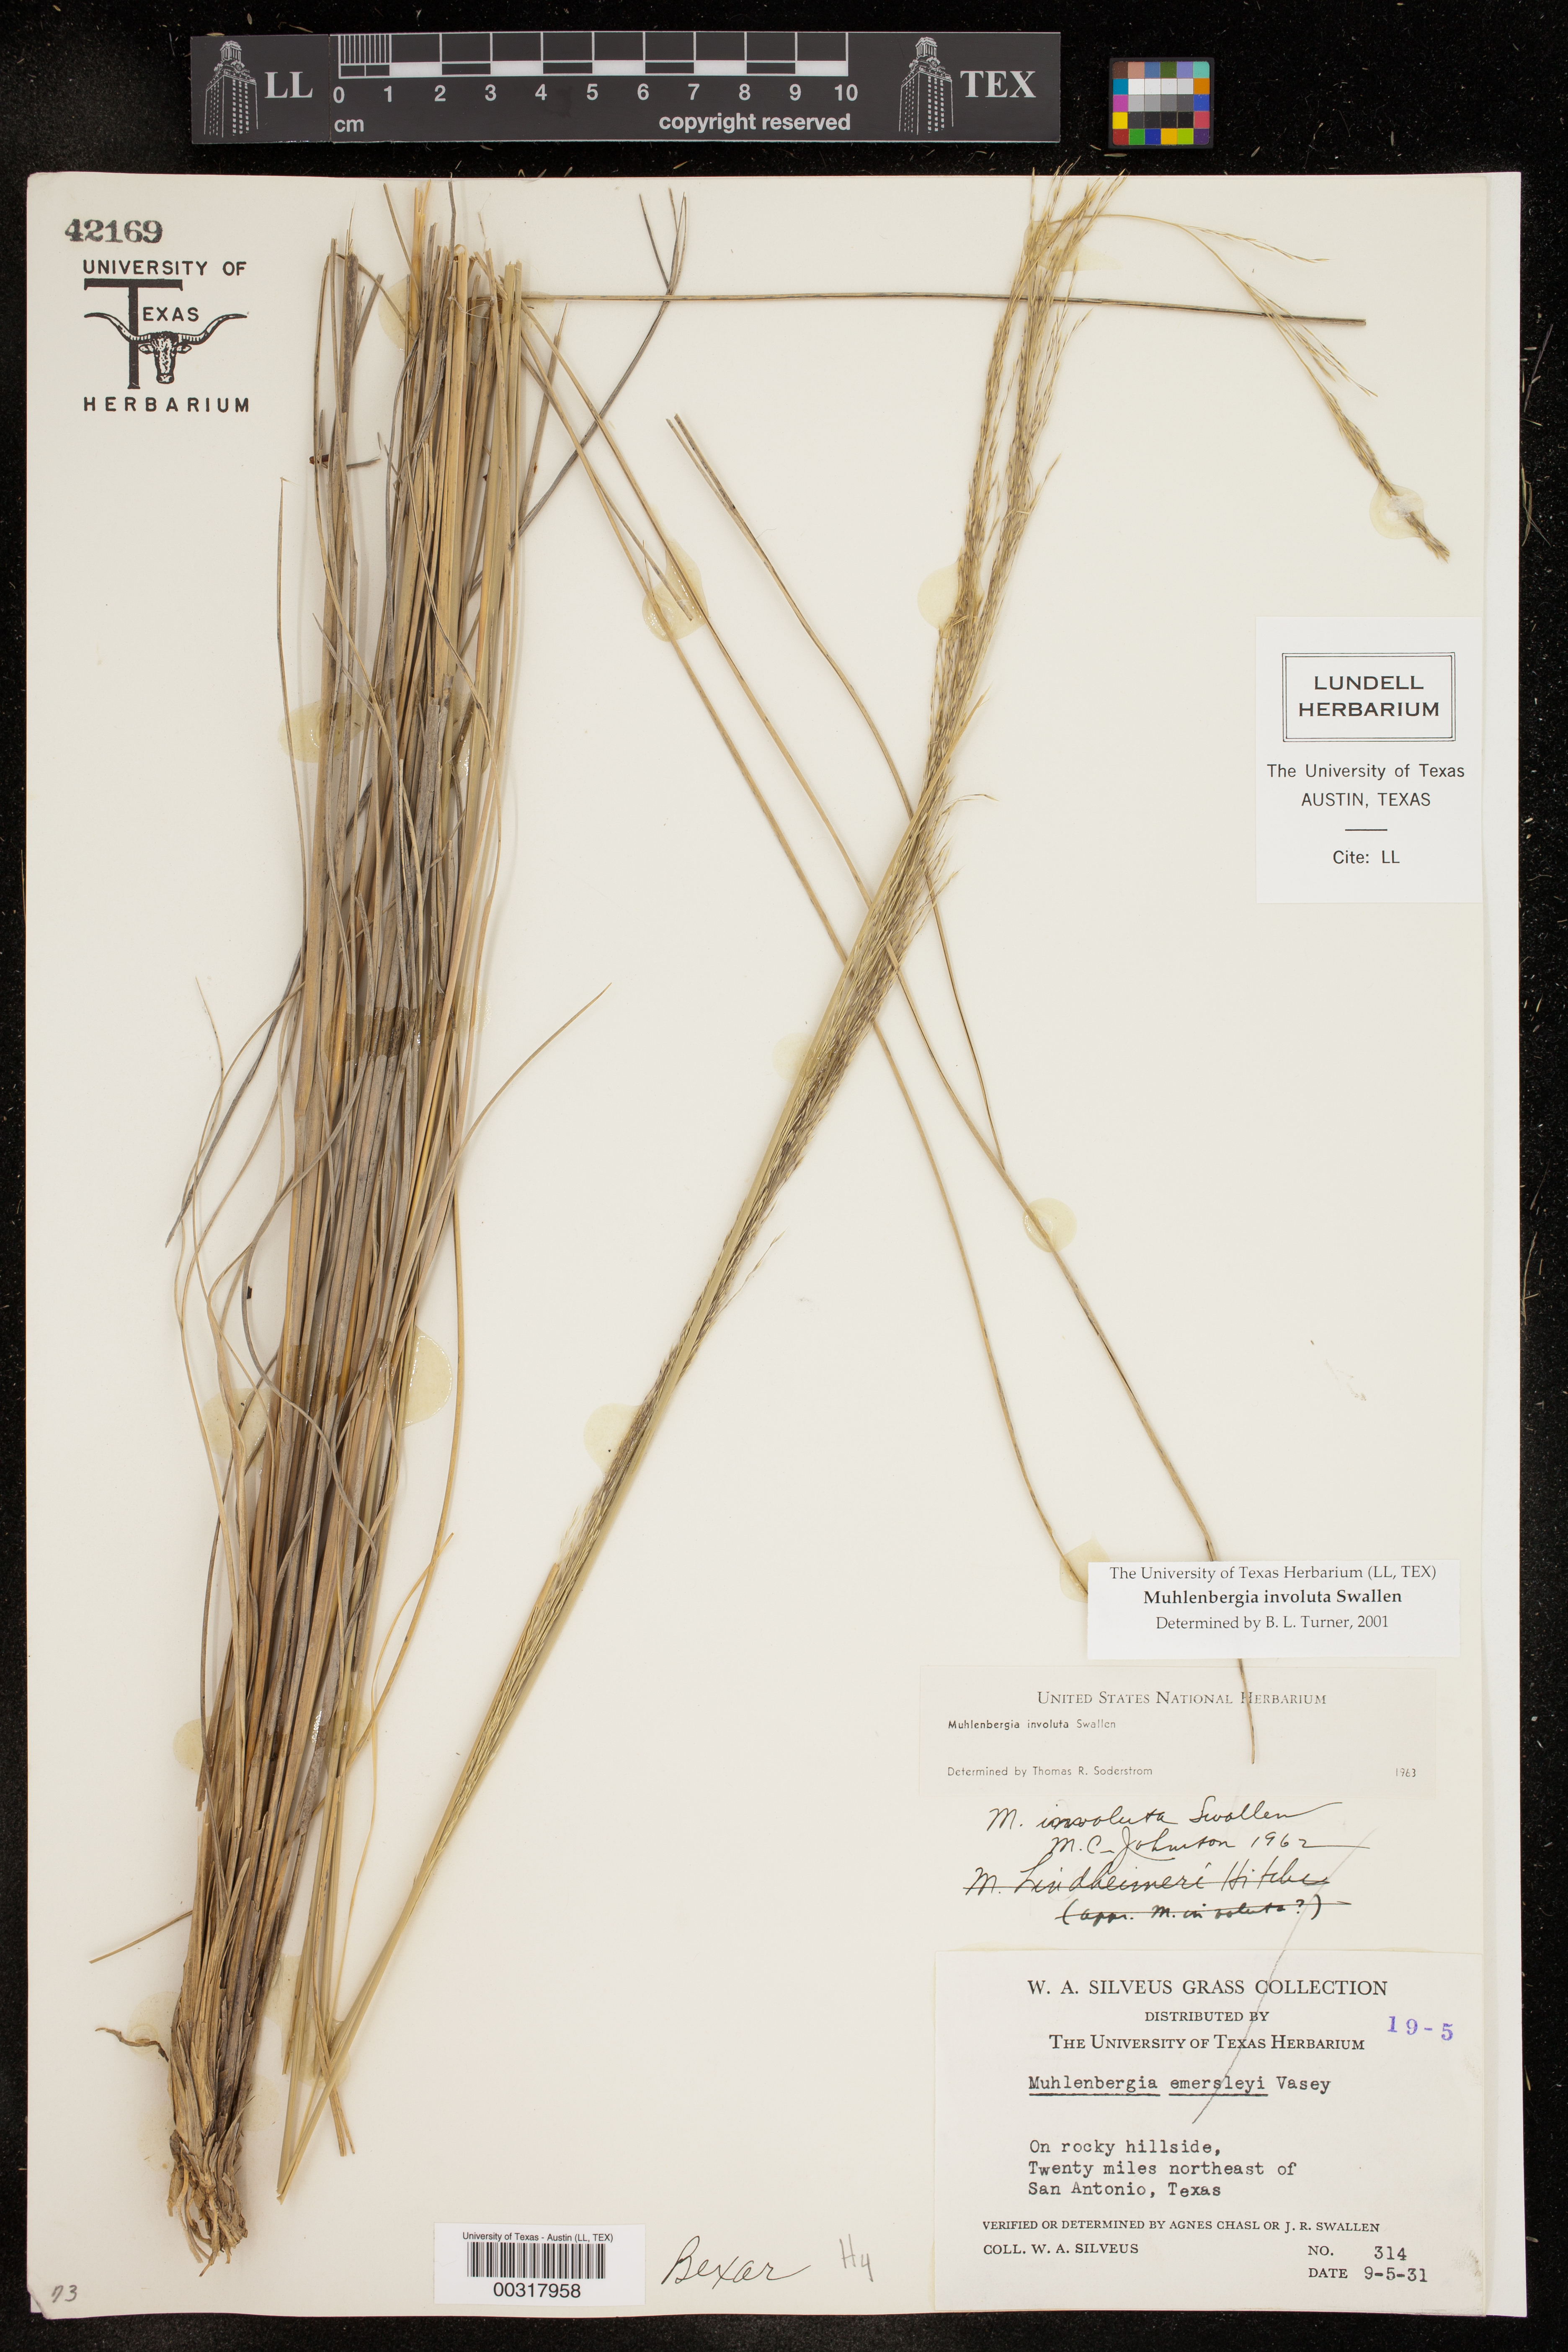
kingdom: Plantae
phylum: Tracheophyta
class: Liliopsida
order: Poales
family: Poaceae
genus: Muhlenbergia
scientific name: Muhlenbergia involuta
